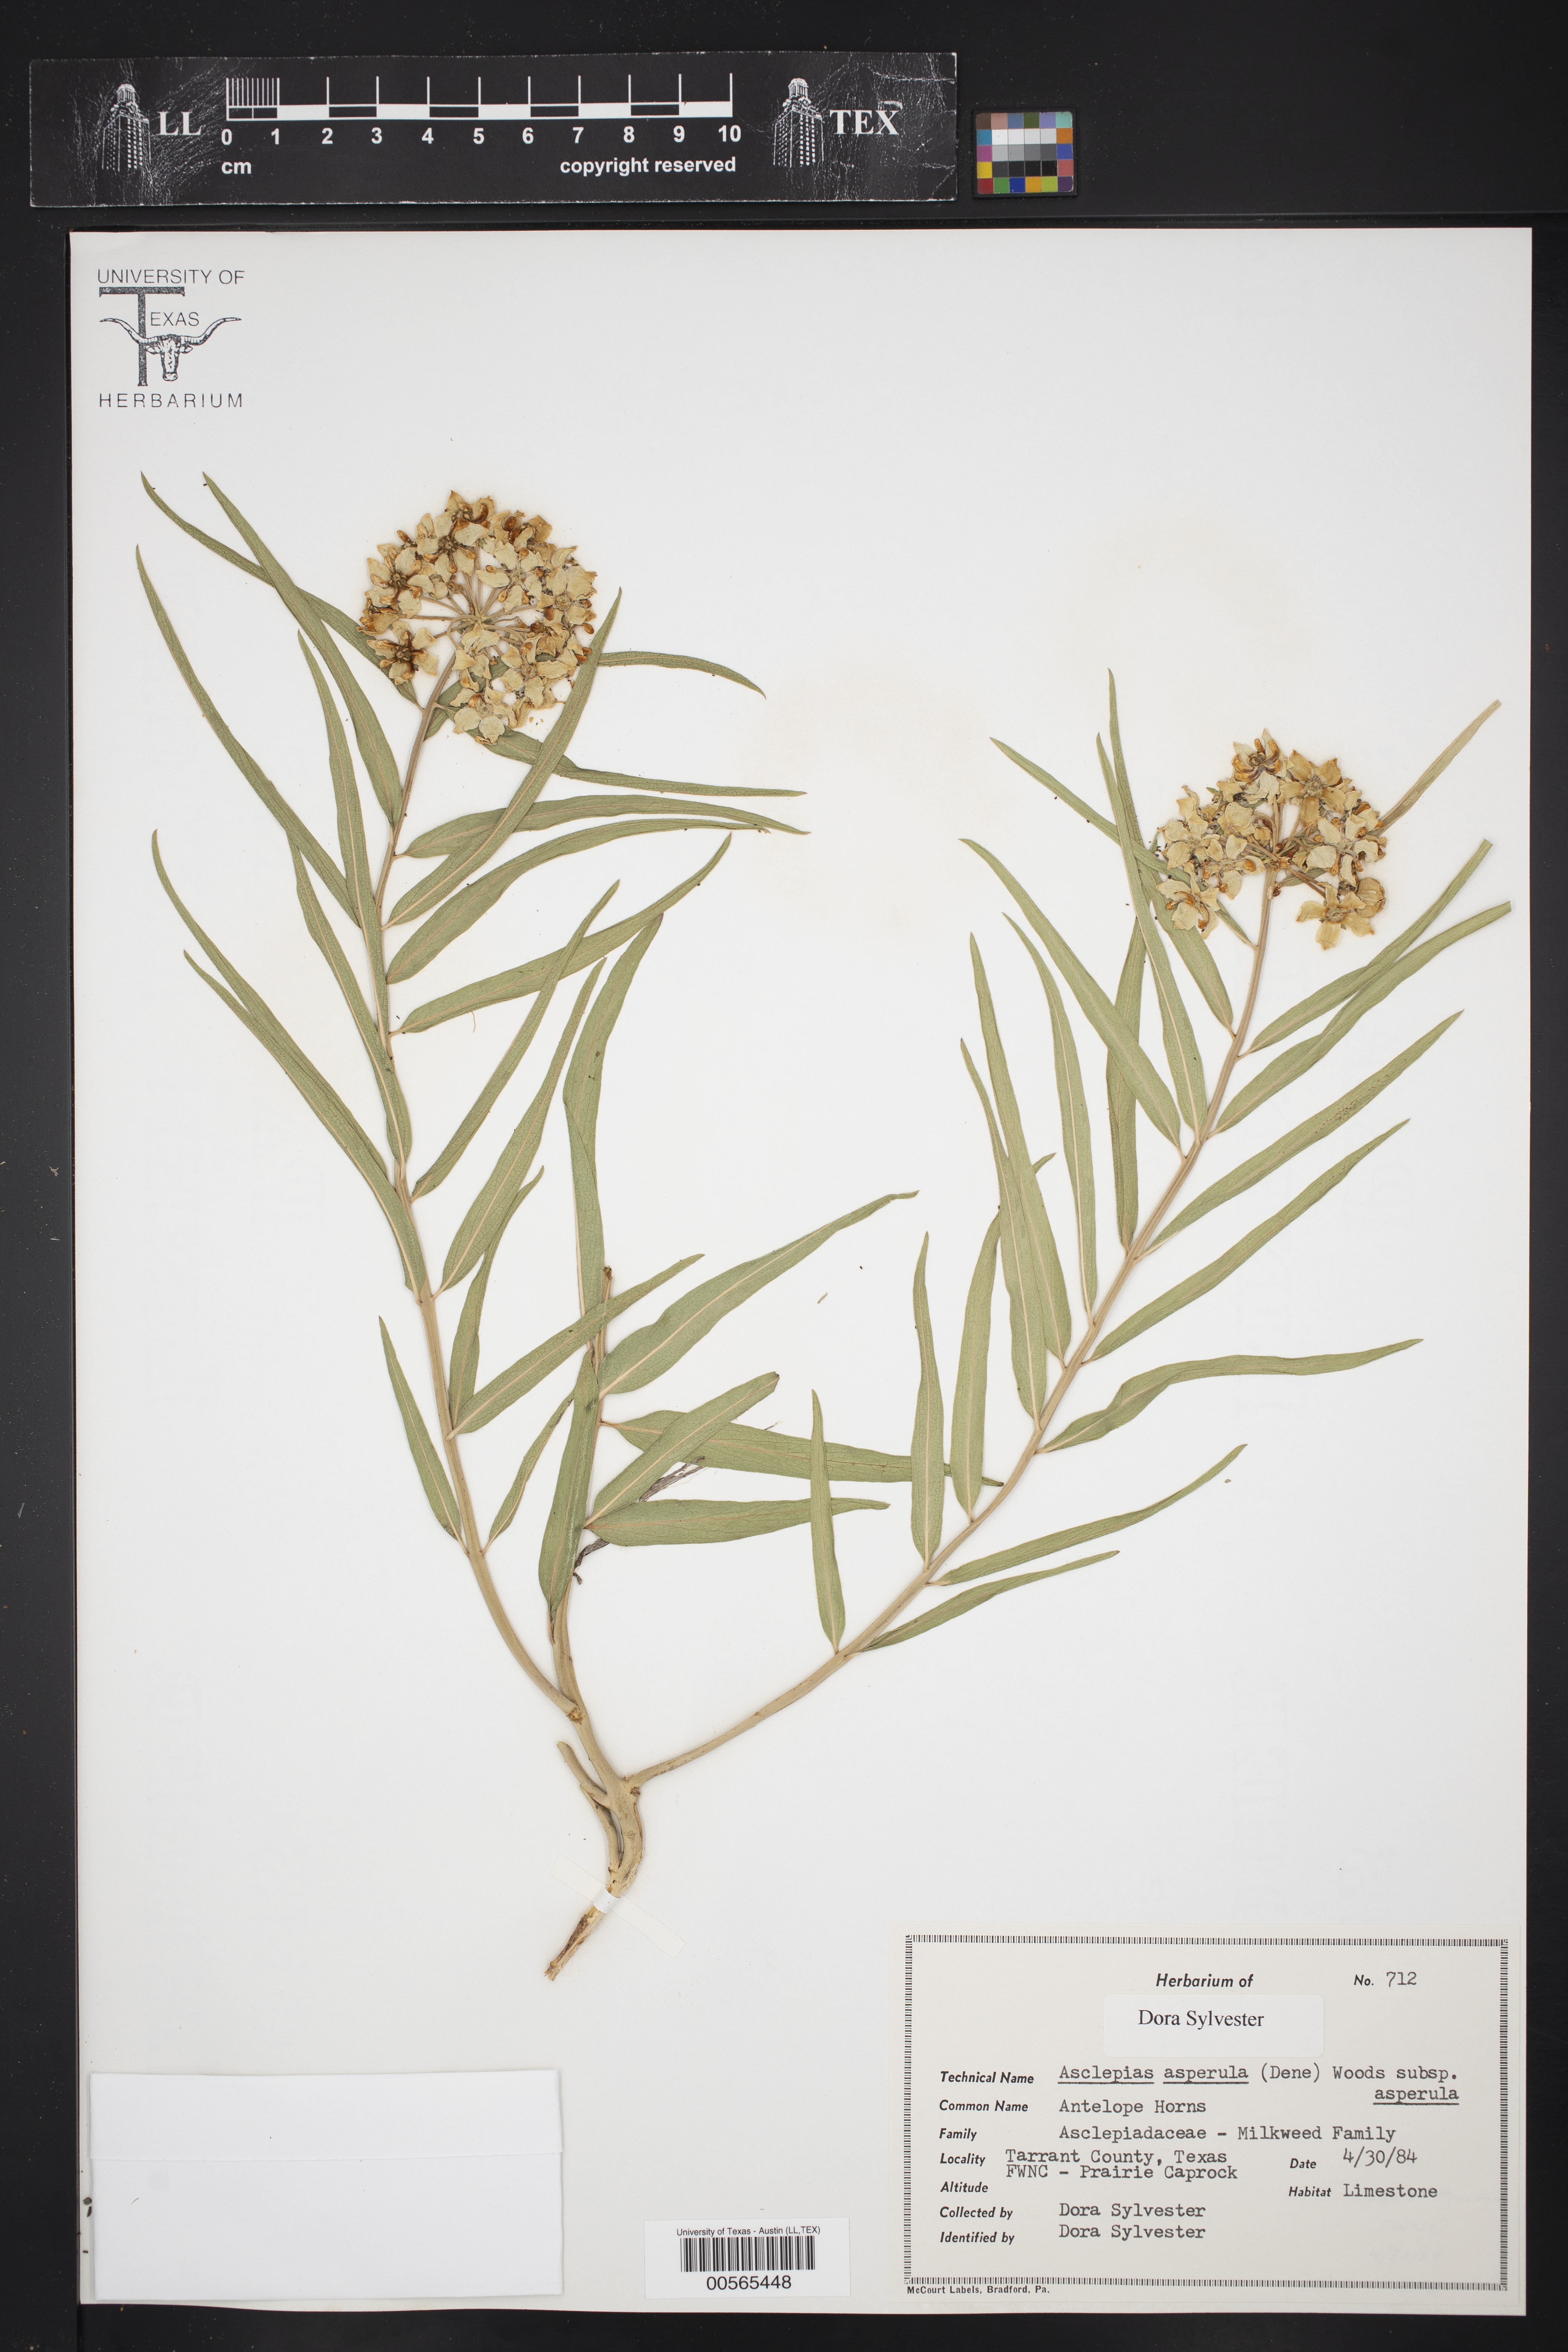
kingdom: Plantae
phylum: Tracheophyta
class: Magnoliopsida
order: Gentianales
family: Apocynaceae
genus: Asclepias
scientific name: Asclepias asperula
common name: Antelope horns
